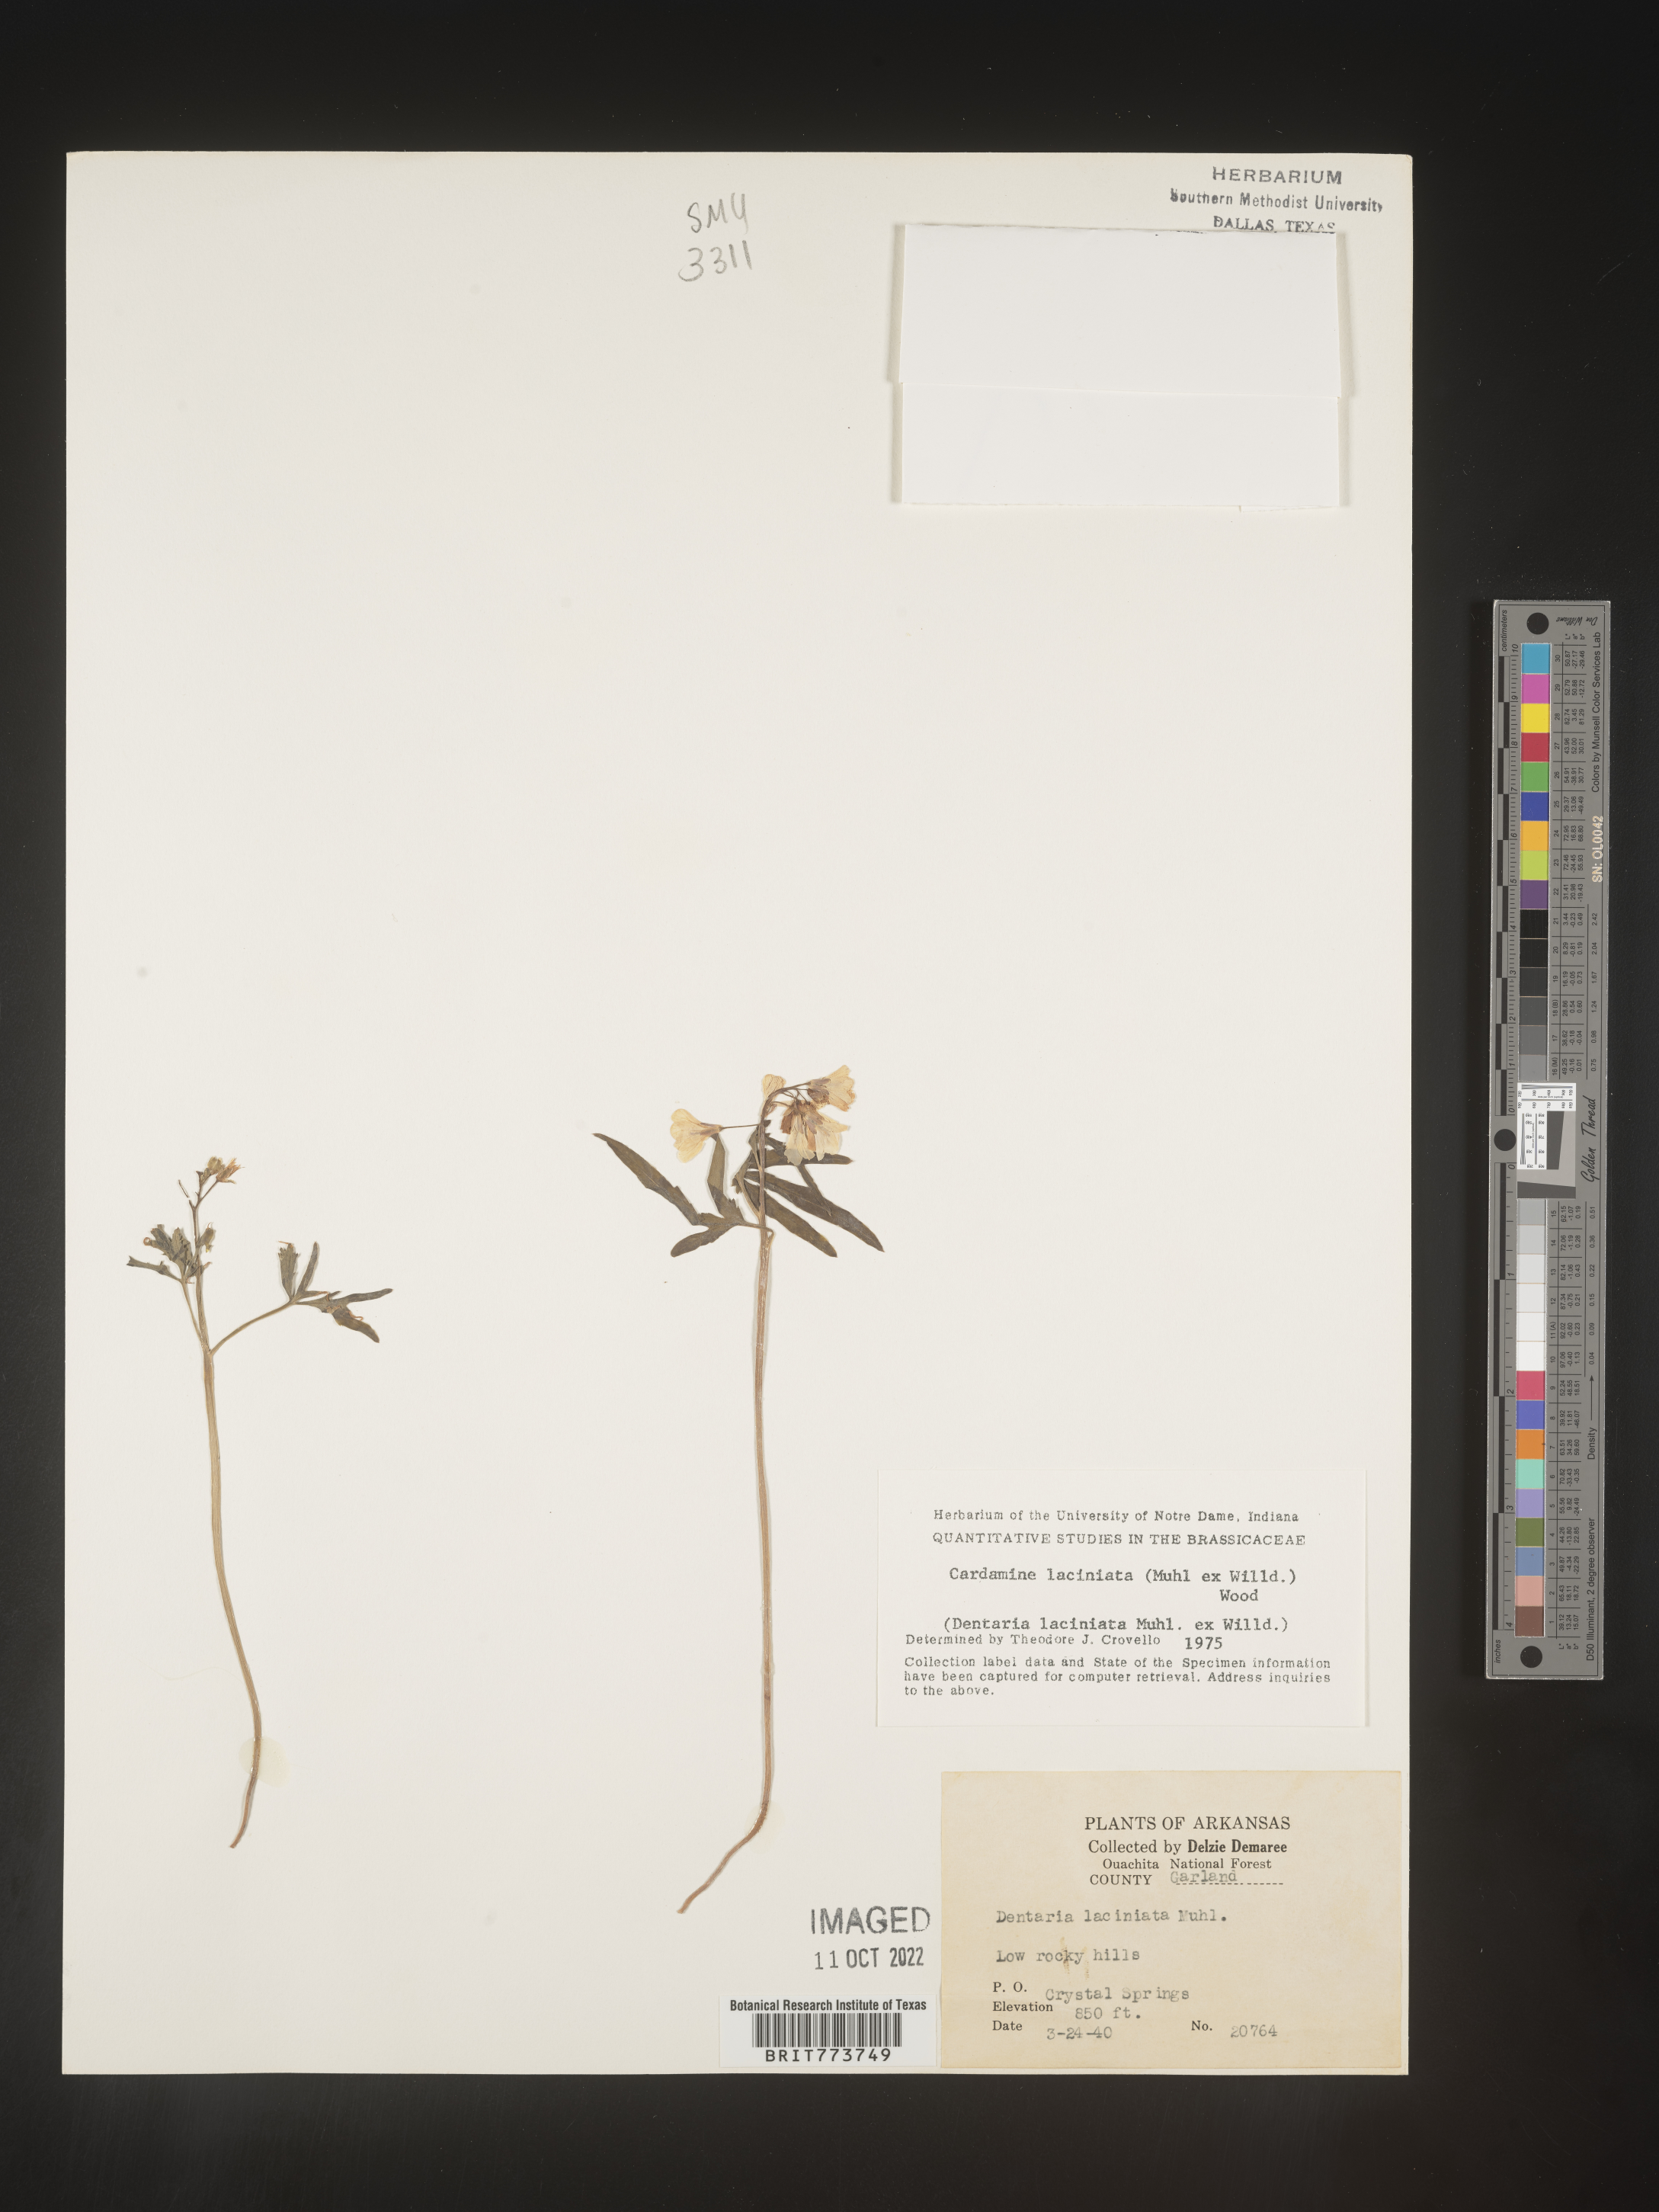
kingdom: Plantae
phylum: Tracheophyta
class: Magnoliopsida
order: Brassicales
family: Brassicaceae
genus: Rorippa
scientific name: Rorippa laciniata
